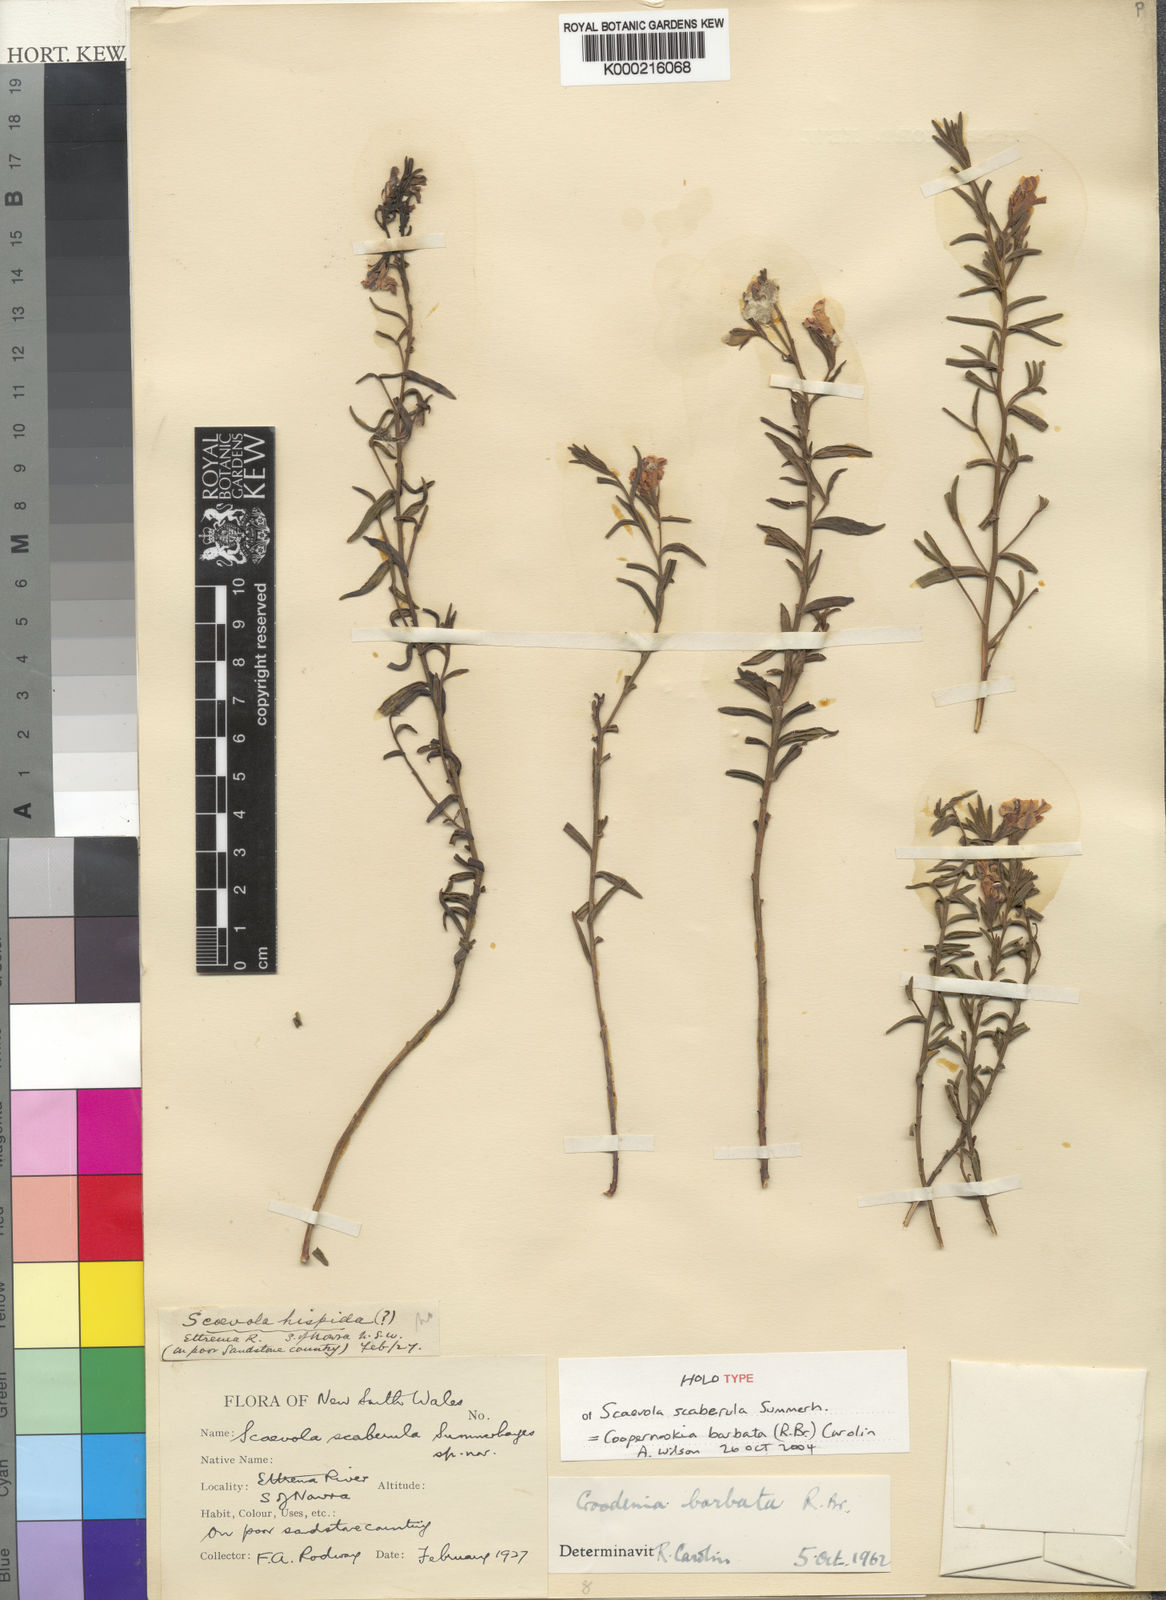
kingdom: Plantae
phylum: Tracheophyta
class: Magnoliopsida
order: Asterales
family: Goodeniaceae
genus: Goodenia
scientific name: Goodenia barbata
